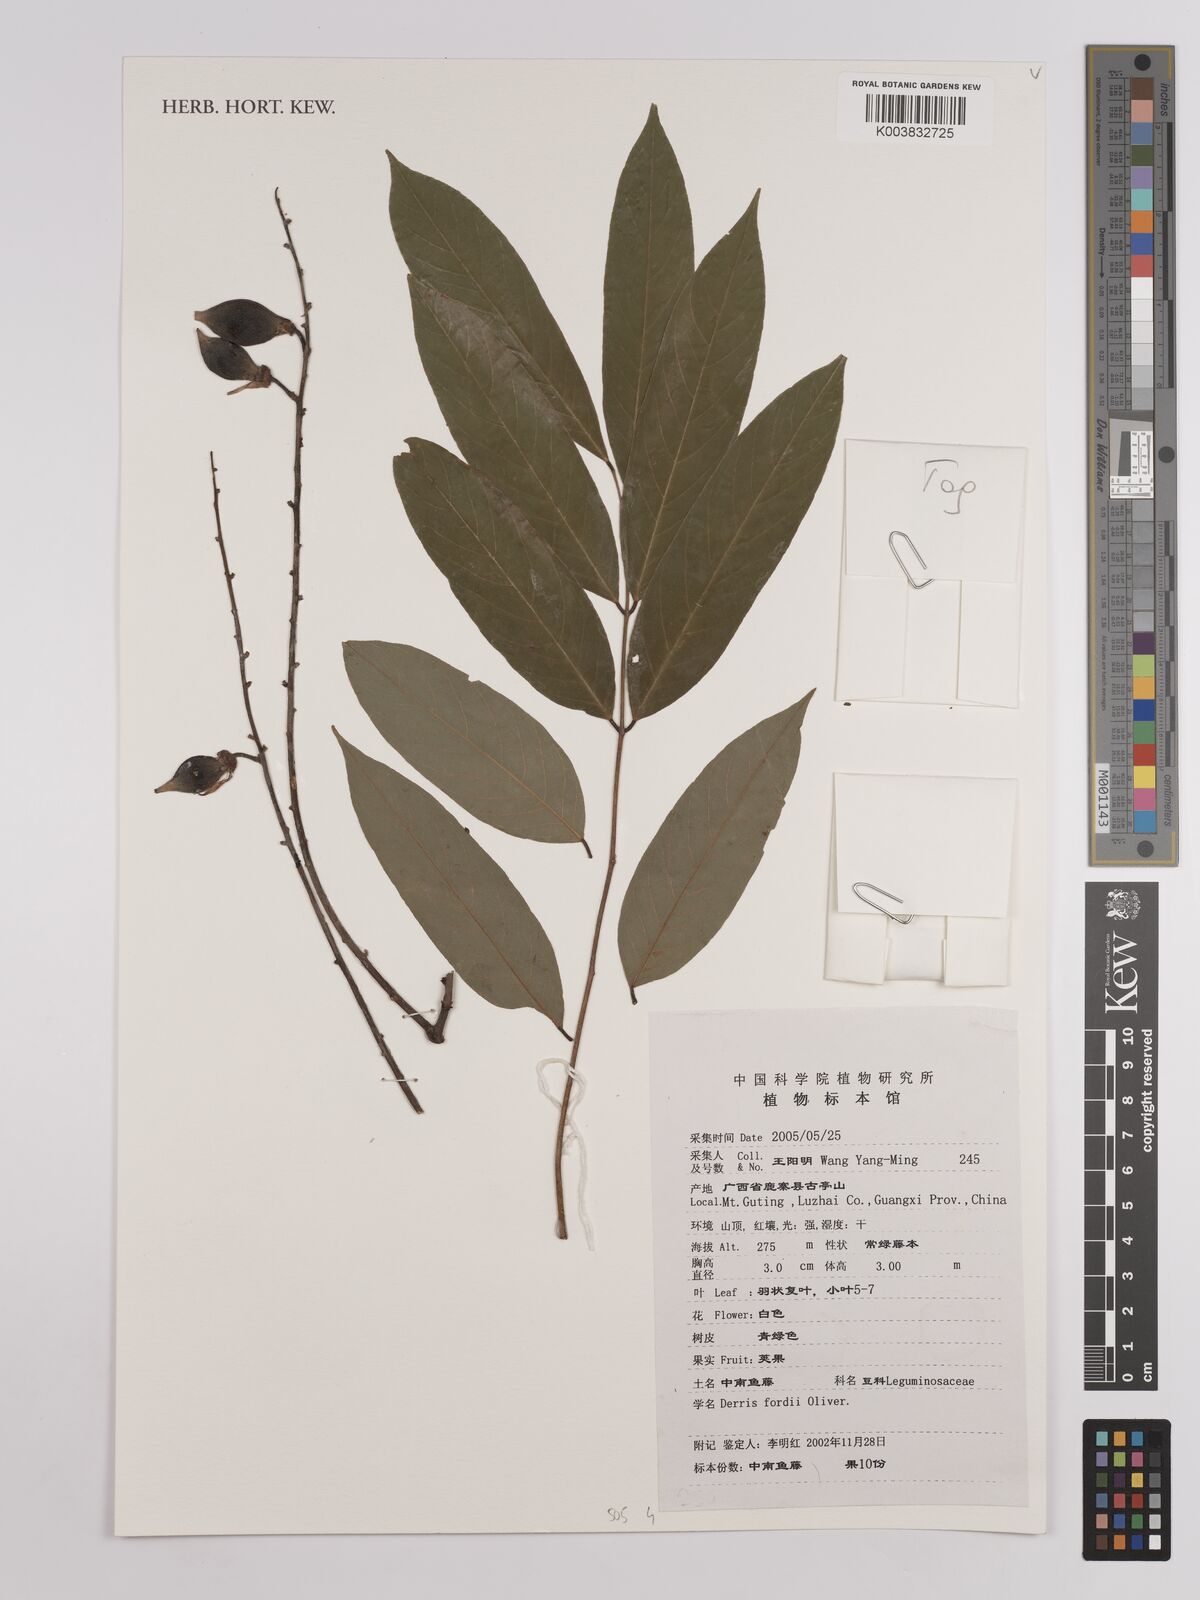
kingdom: Plantae
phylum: Tracheophyta
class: Magnoliopsida
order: Fabales
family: Fabaceae
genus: Derris
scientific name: Derris fordii
